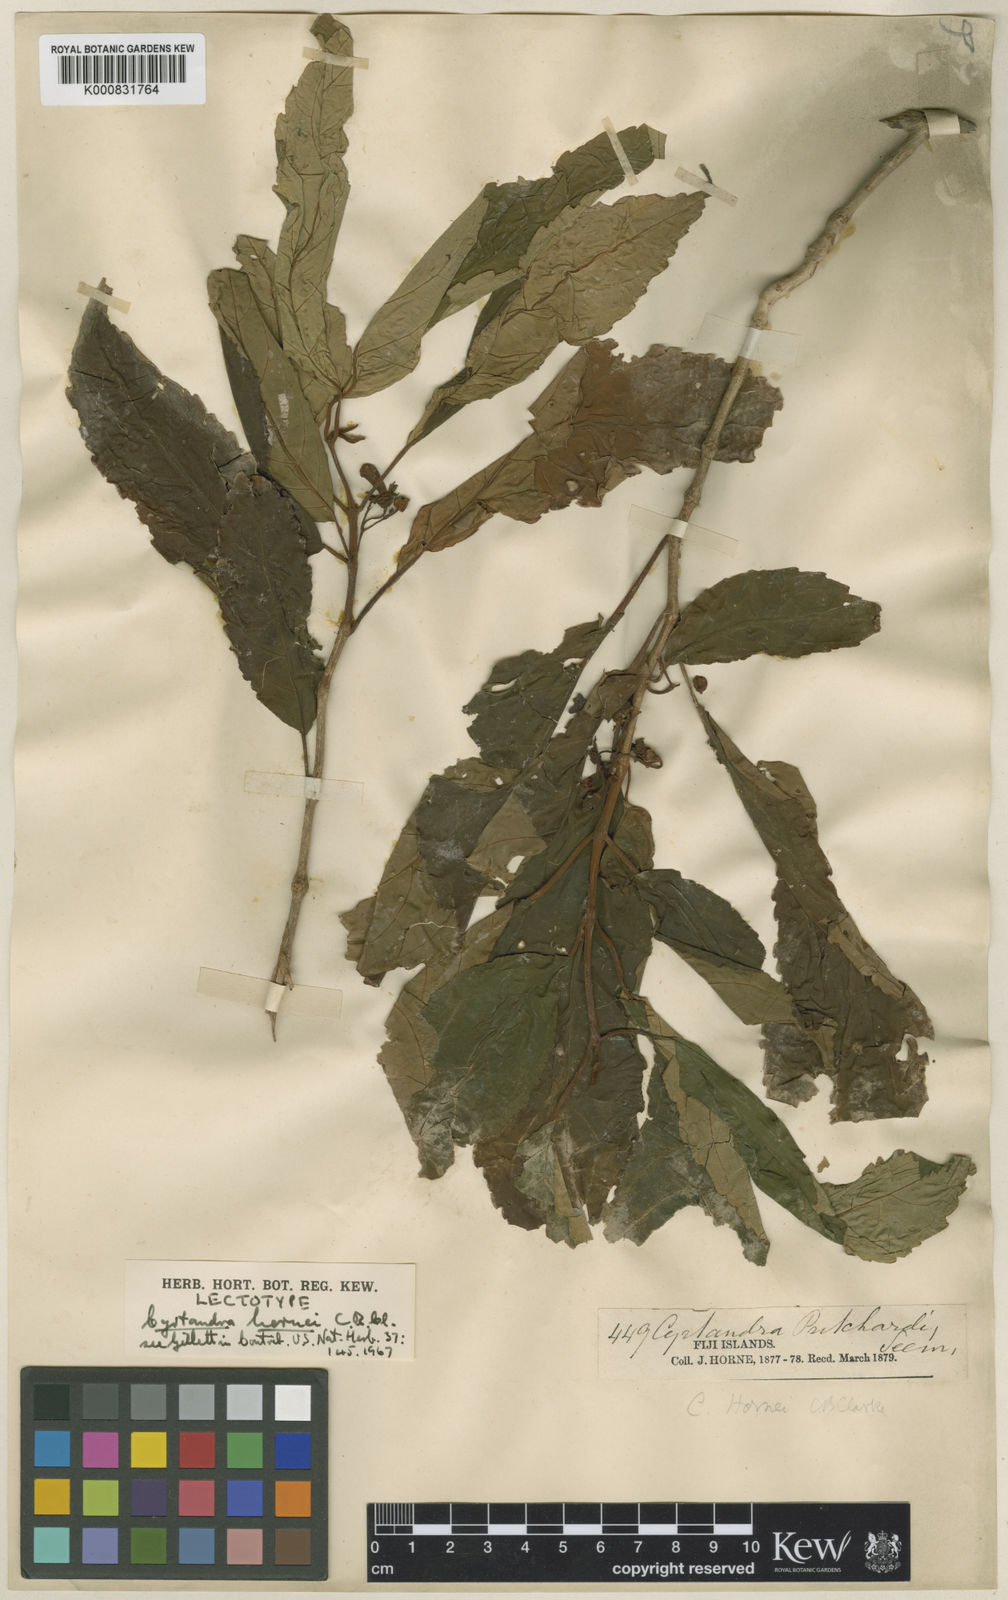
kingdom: Plantae
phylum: Tracheophyta
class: Magnoliopsida
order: Lamiales
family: Gesneriaceae
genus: Cyrtandra
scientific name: Cyrtandra hornei
